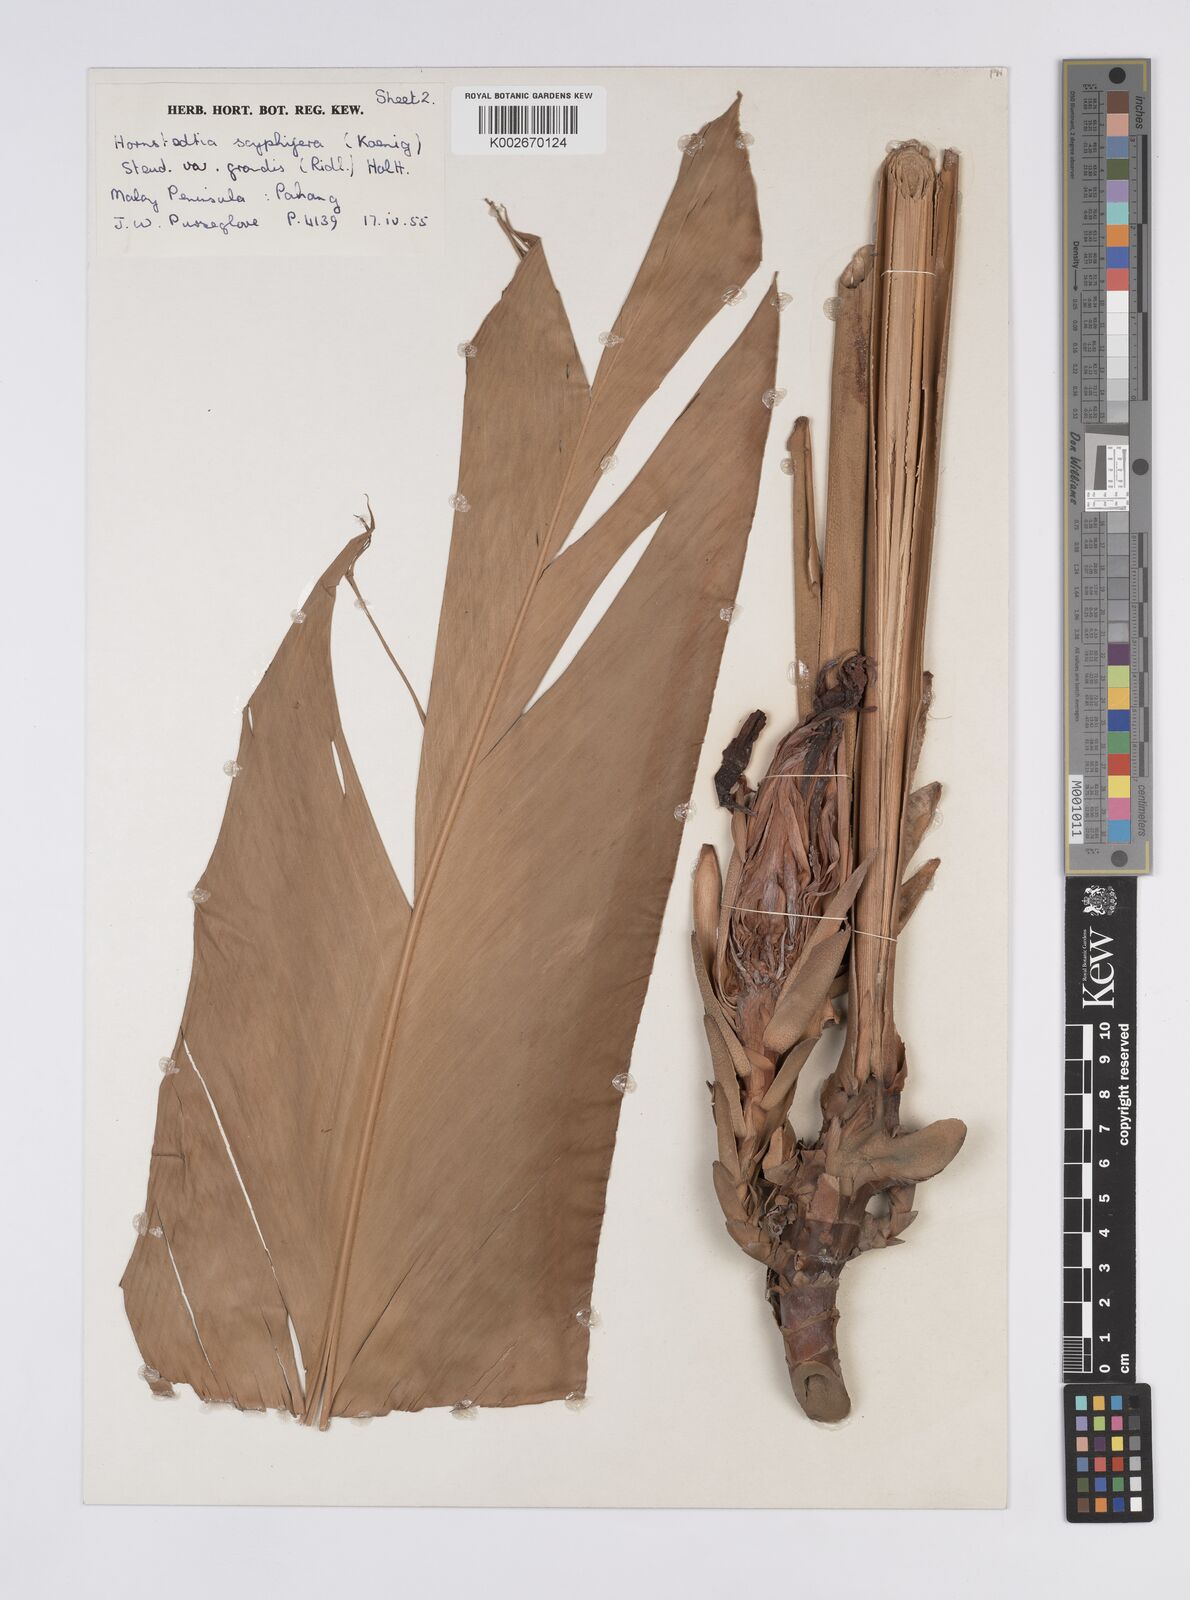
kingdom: Plantae
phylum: Tracheophyta
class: Liliopsida
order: Zingiberales
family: Zingiberaceae
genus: Hornstedtia
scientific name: Hornstedtia scyphifera
